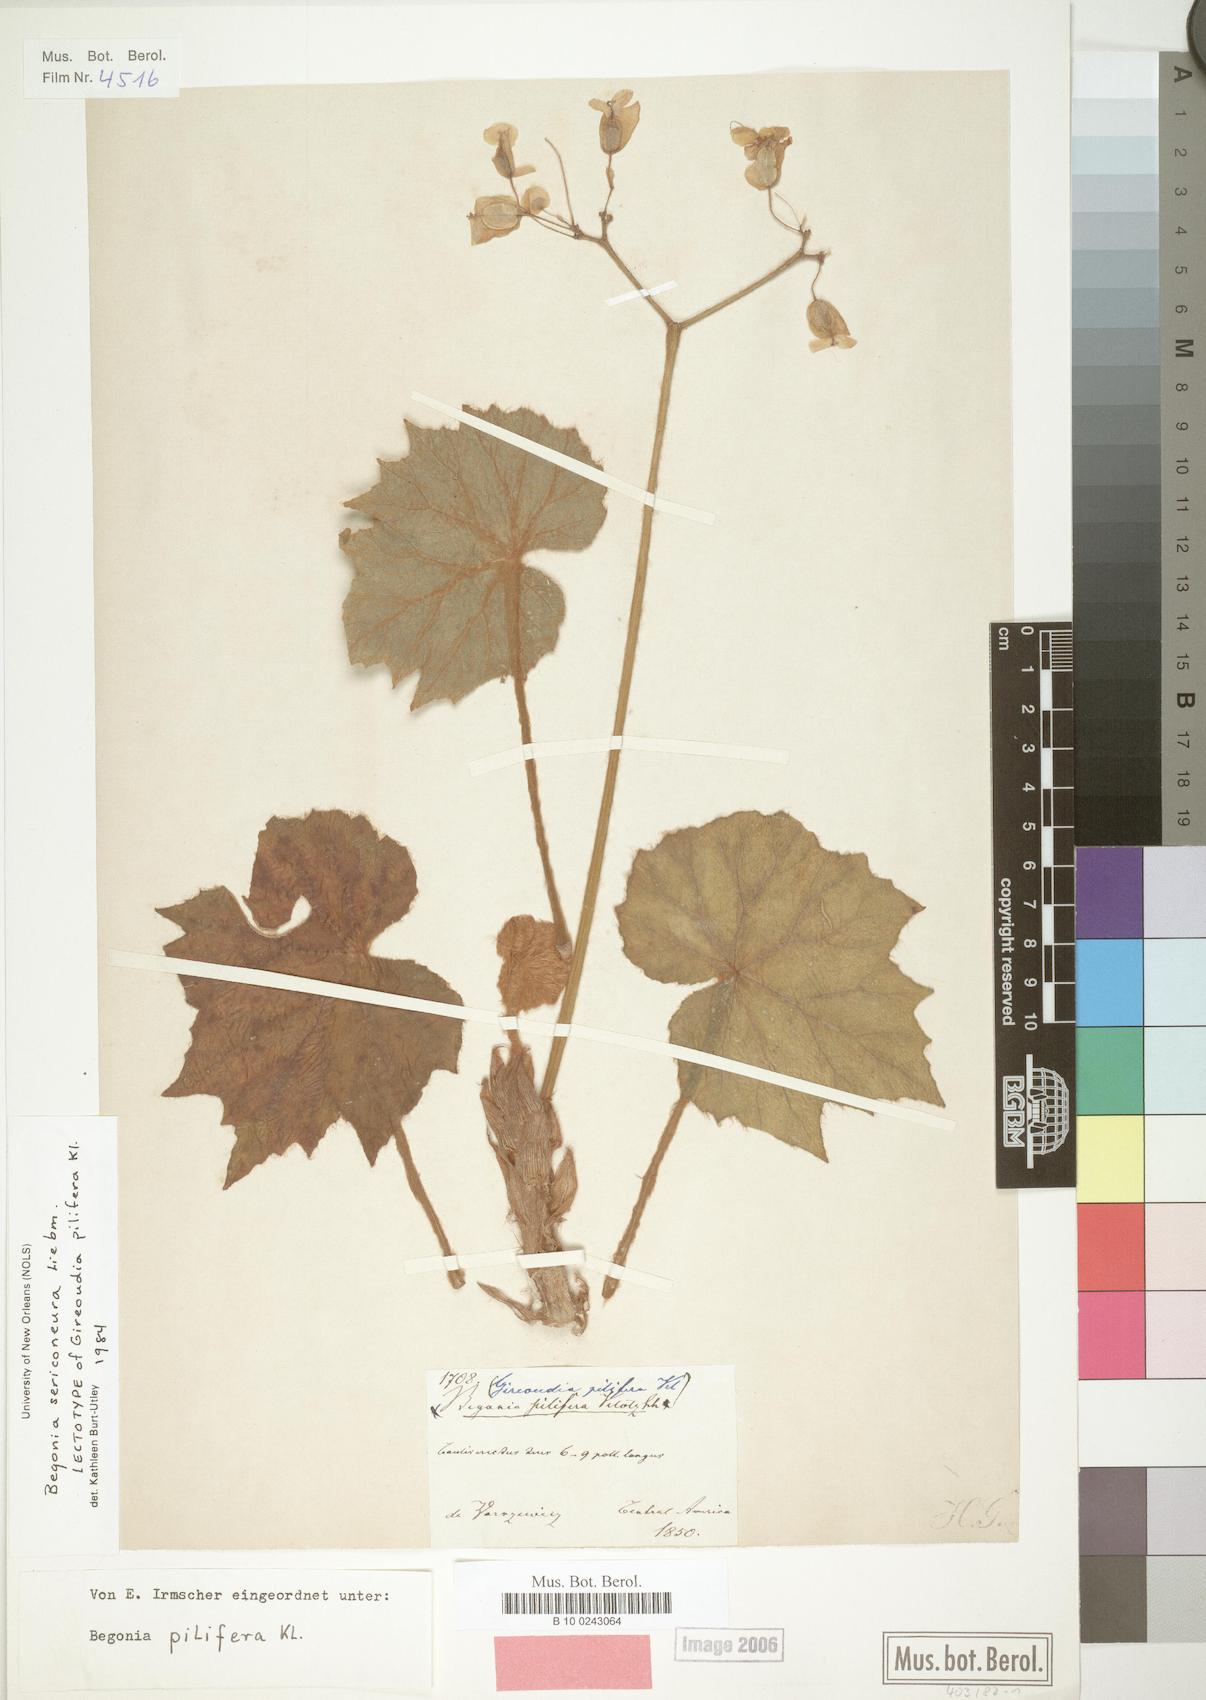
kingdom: Plantae
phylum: Tracheophyta
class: Magnoliopsida
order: Cucurbitales
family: Begoniaceae
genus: Begonia
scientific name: Begonia sericoneura
